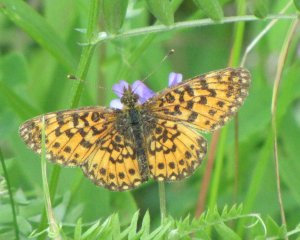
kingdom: Animalia
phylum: Arthropoda
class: Insecta
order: Lepidoptera
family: Nymphalidae
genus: Boloria
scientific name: Boloria selene
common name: Silver-bordered Fritillary
